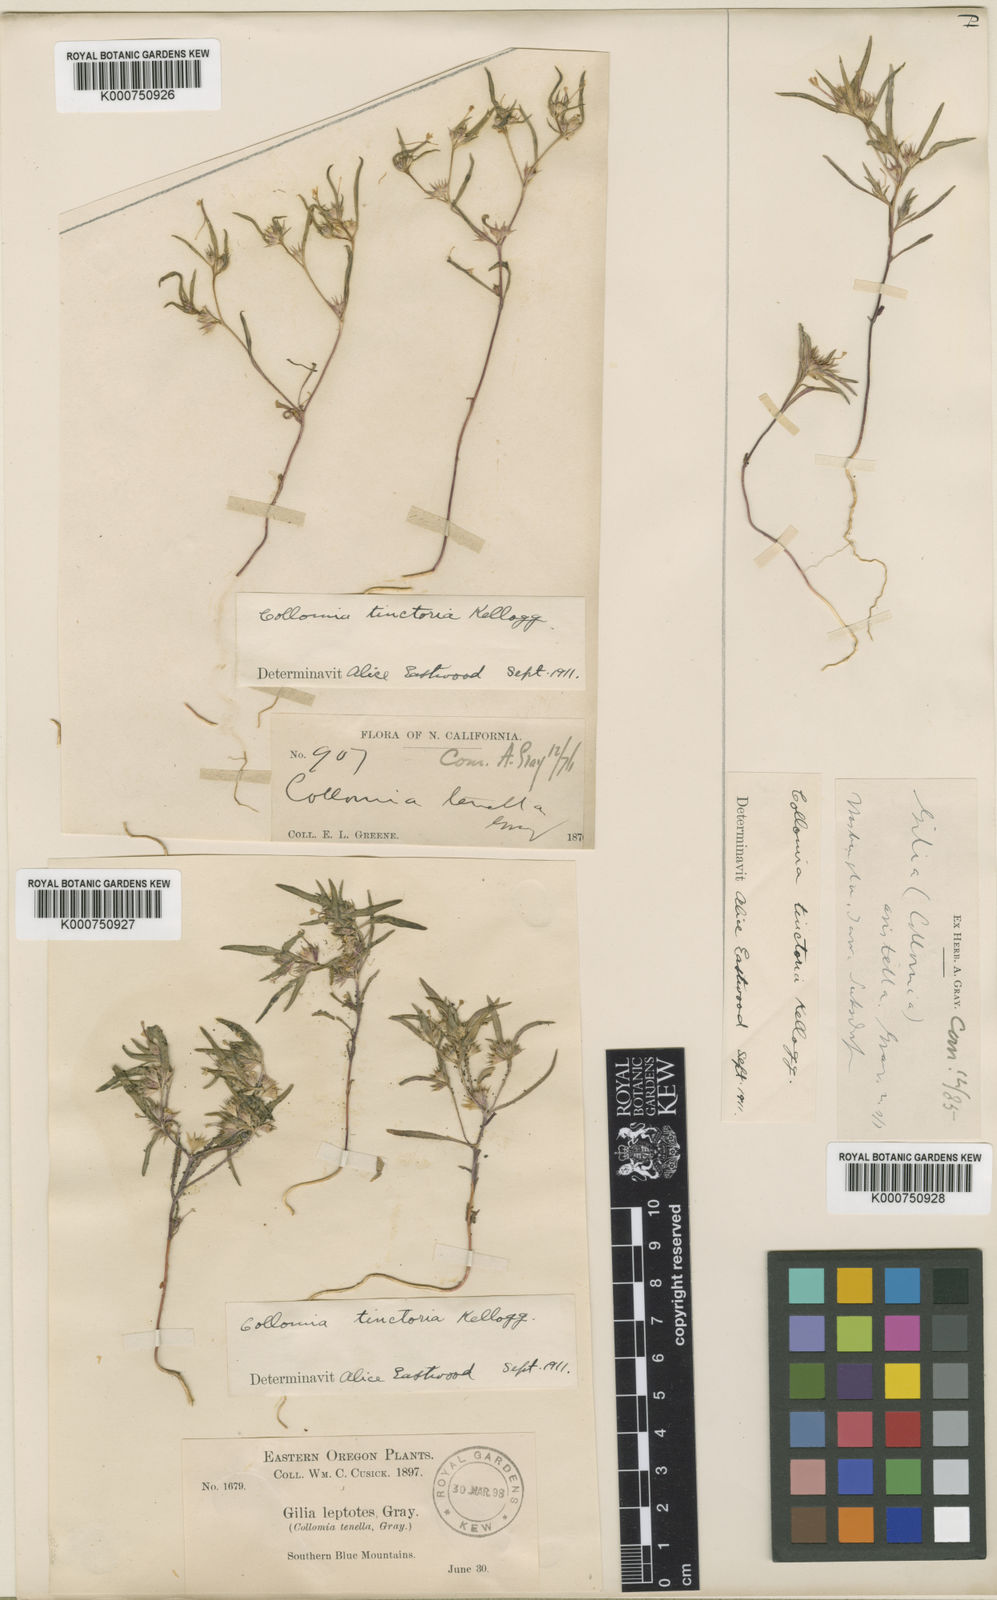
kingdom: Plantae
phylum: Tracheophyta
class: Magnoliopsida
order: Ericales
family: Polemoniaceae
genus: Collomia
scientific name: Collomia tinctoria
